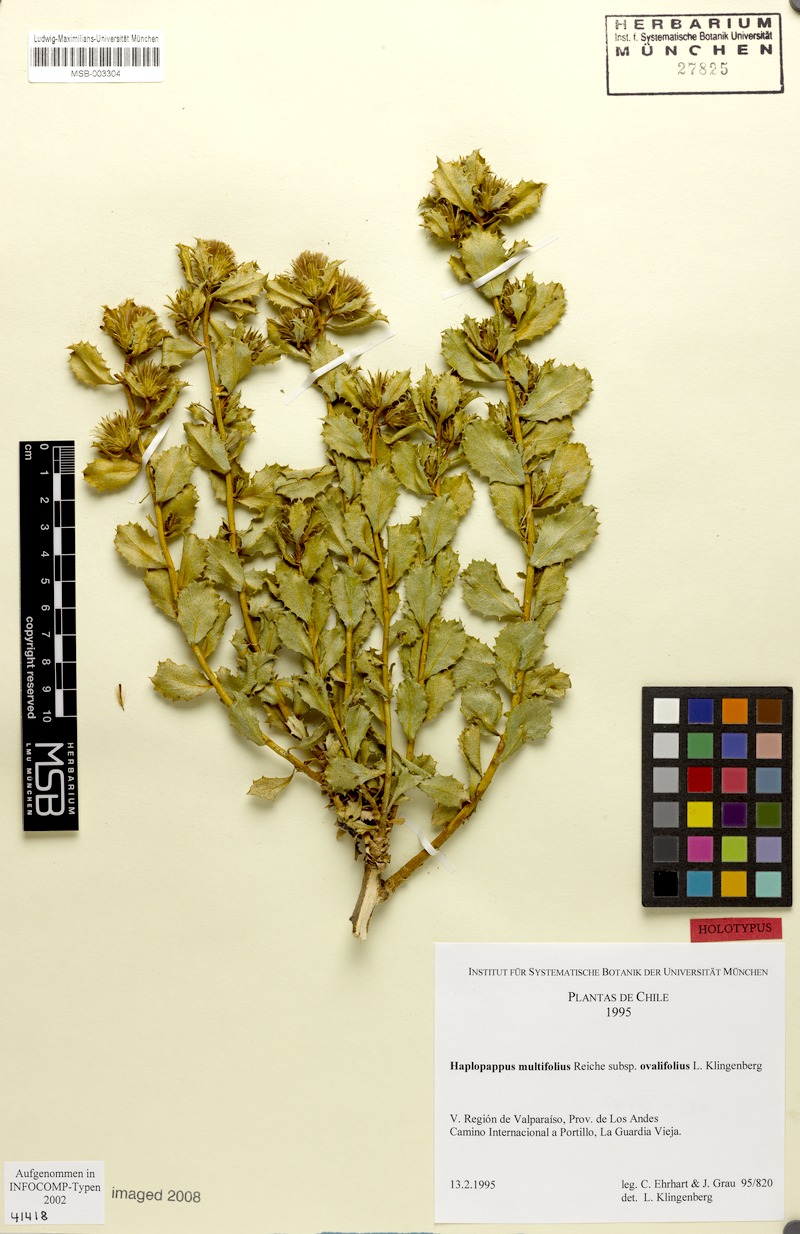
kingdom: Plantae
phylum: Tracheophyta
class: Magnoliopsida
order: Asterales
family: Asteraceae
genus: Haplopappus
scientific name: Haplopappus multifolius
